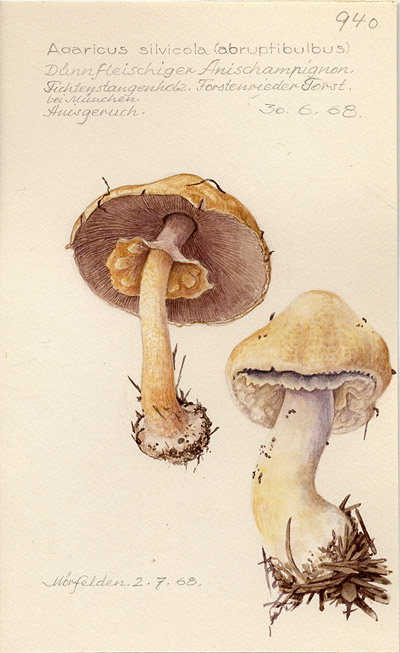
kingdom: Fungi
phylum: Basidiomycota
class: Agaricomycetes
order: Agaricales
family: Agaricaceae
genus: Agaricus
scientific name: Agaricus sylvicola
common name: Wood mushroom
